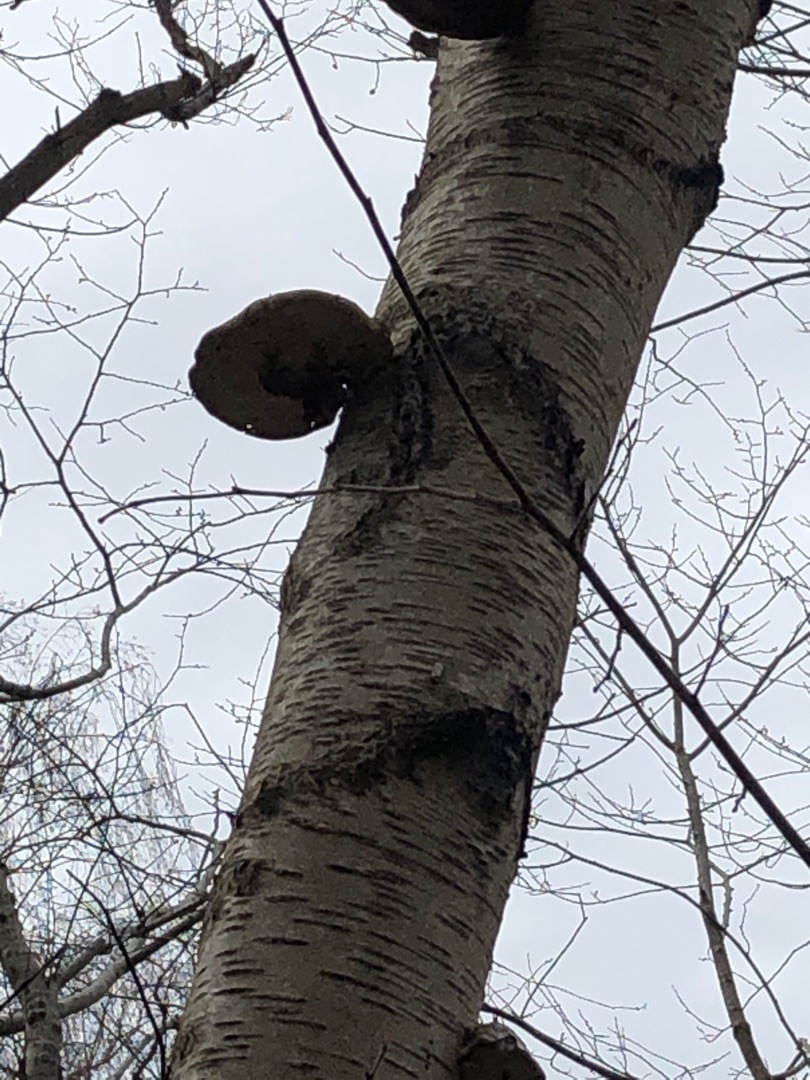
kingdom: Fungi
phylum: Basidiomycota
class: Agaricomycetes
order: Polyporales
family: Fomitopsidaceae
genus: Fomitopsis
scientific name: Fomitopsis betulina
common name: Birkeporesvamp
